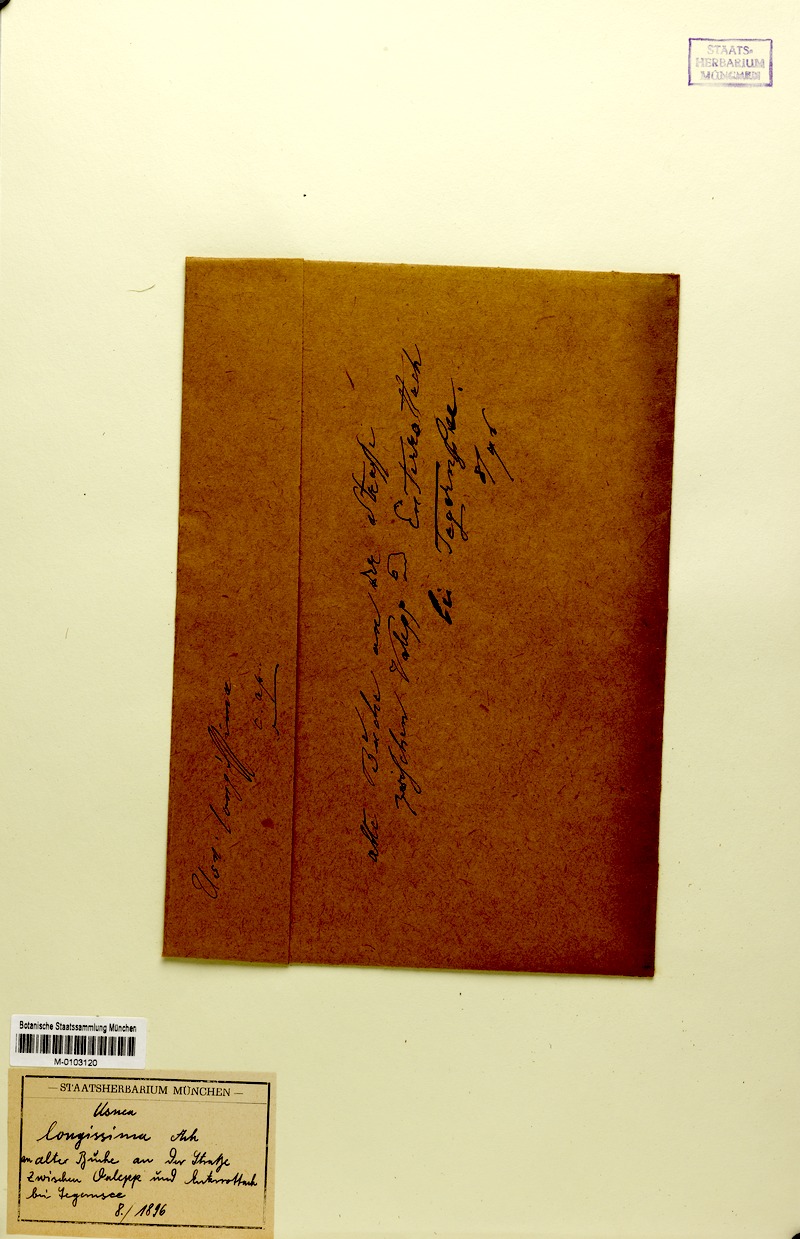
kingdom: Fungi
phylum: Ascomycota
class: Lecanoromycetes
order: Lecanorales
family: Parmeliaceae
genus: Dolichousnea
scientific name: Dolichousnea longissima
